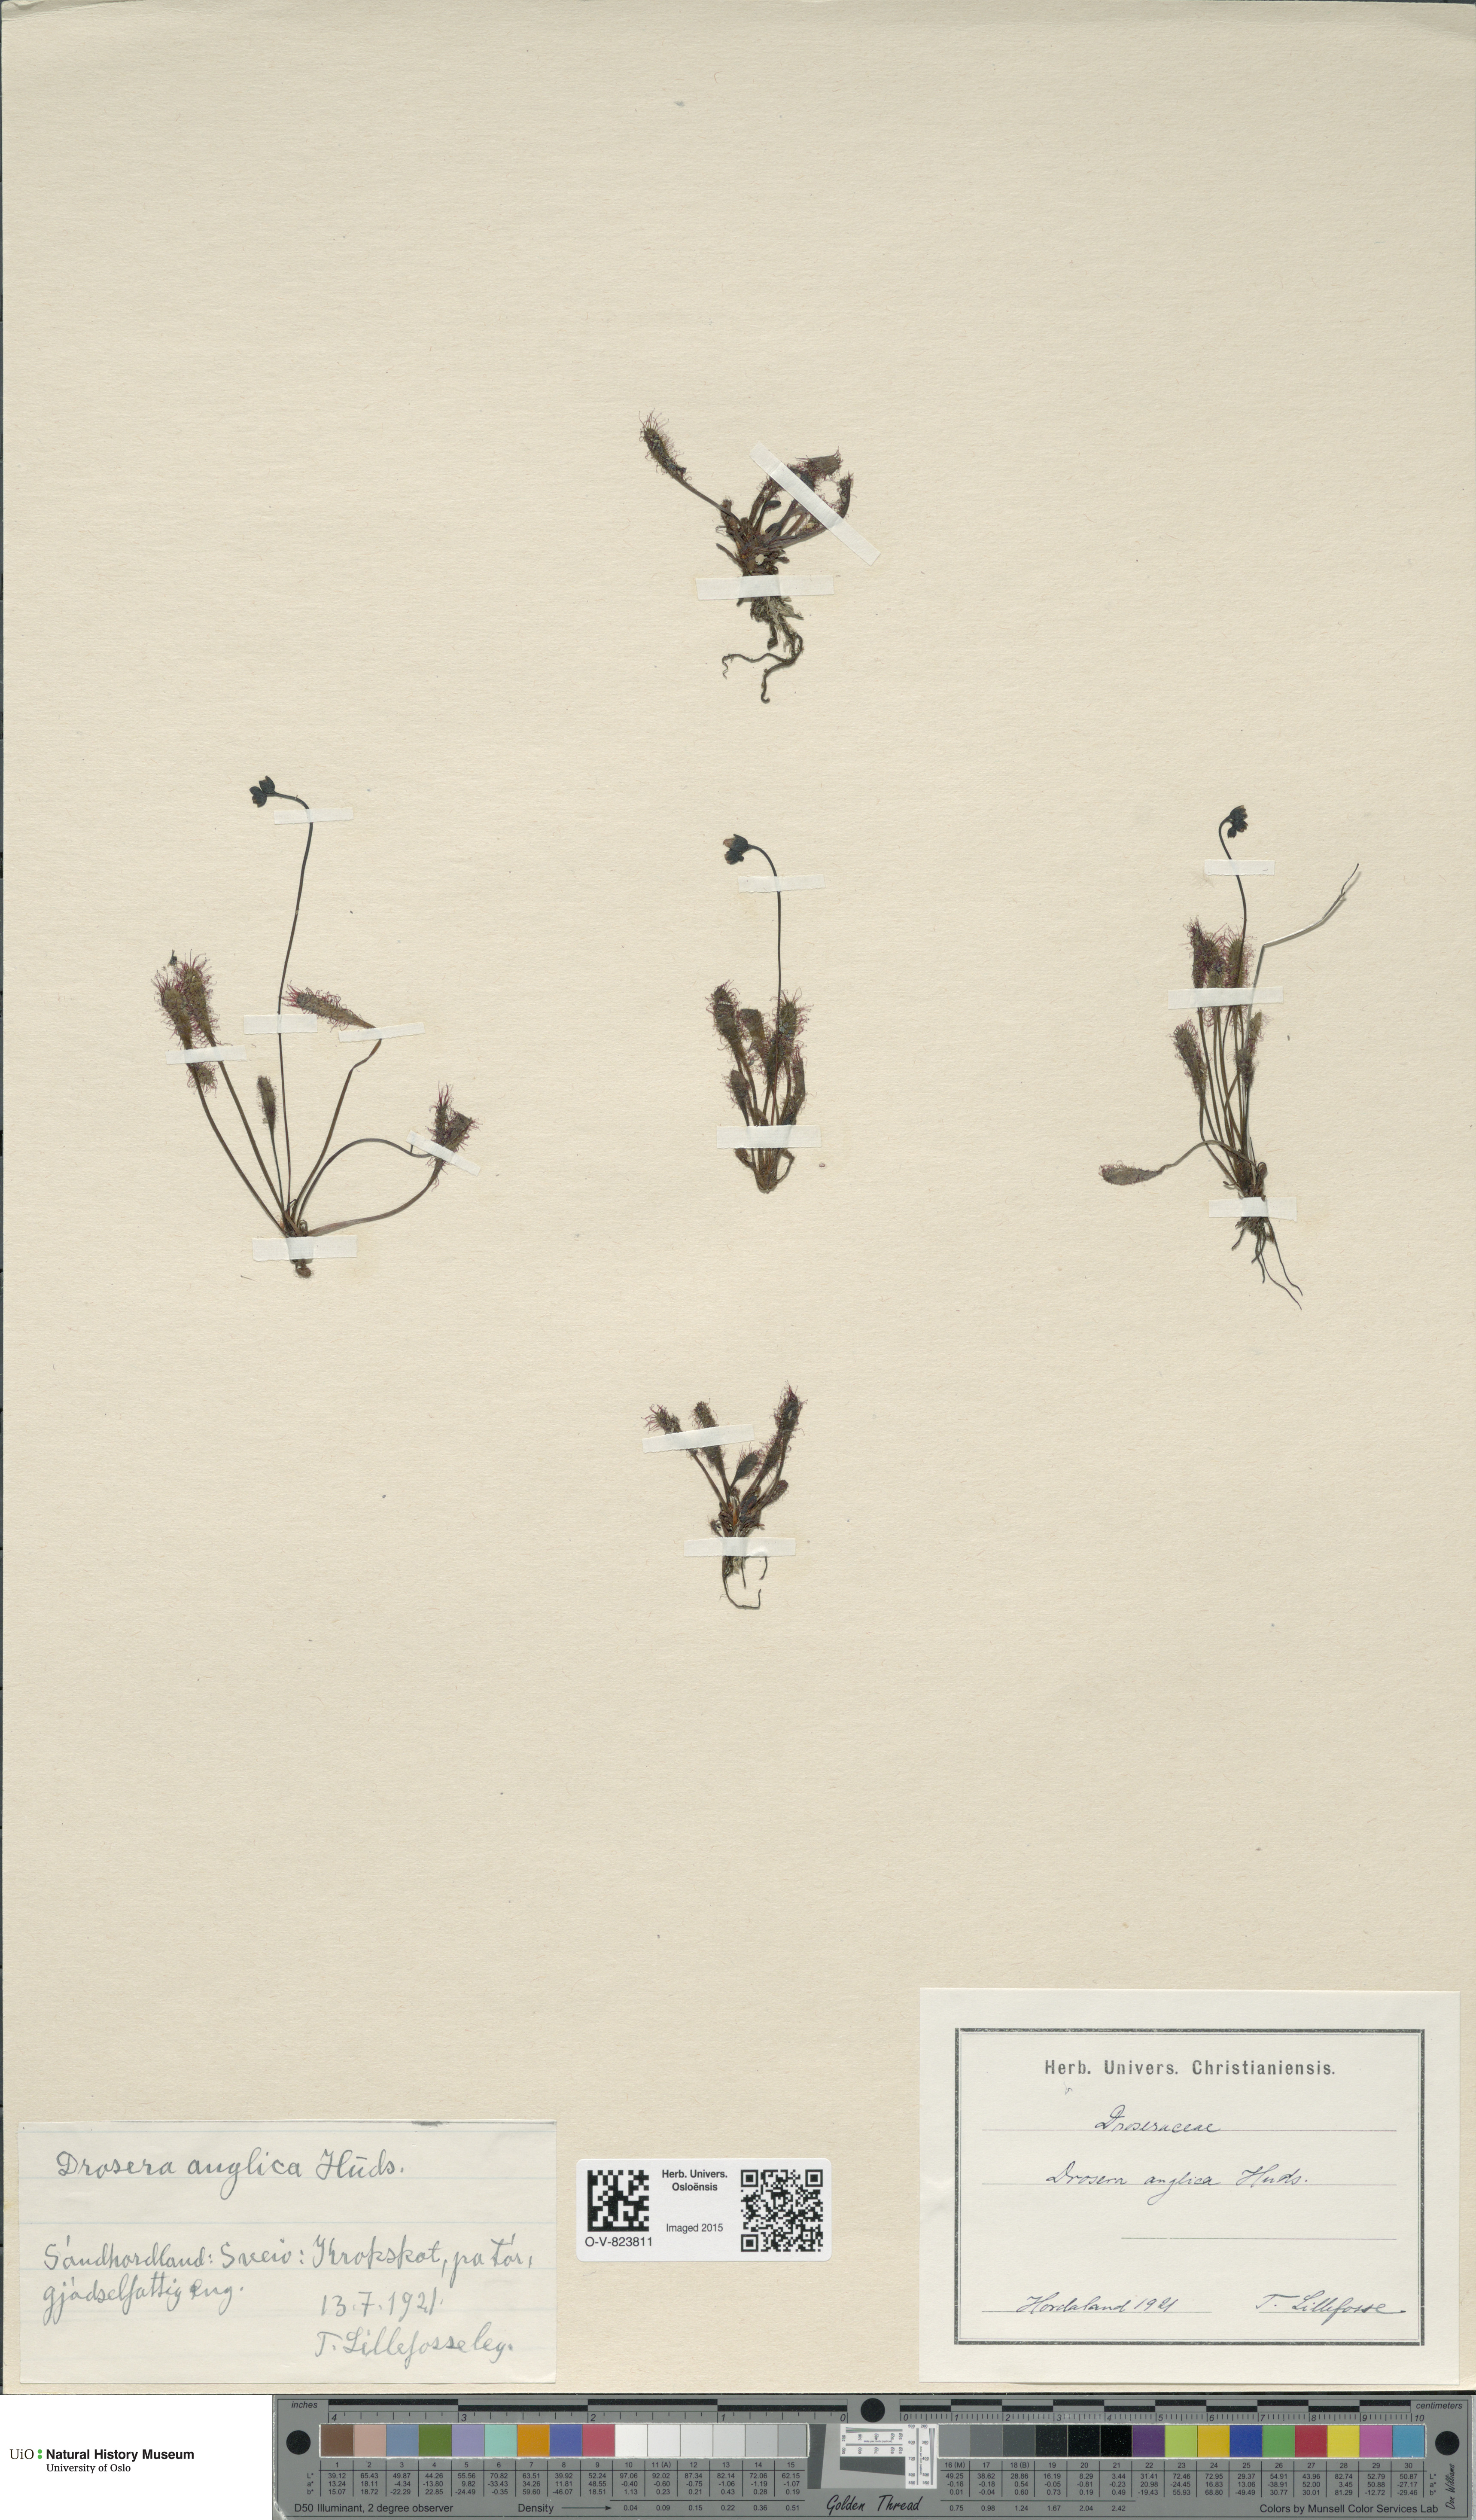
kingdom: Plantae
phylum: Tracheophyta
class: Magnoliopsida
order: Caryophyllales
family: Droseraceae
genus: Drosera
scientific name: Drosera anglica
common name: Great sundew
